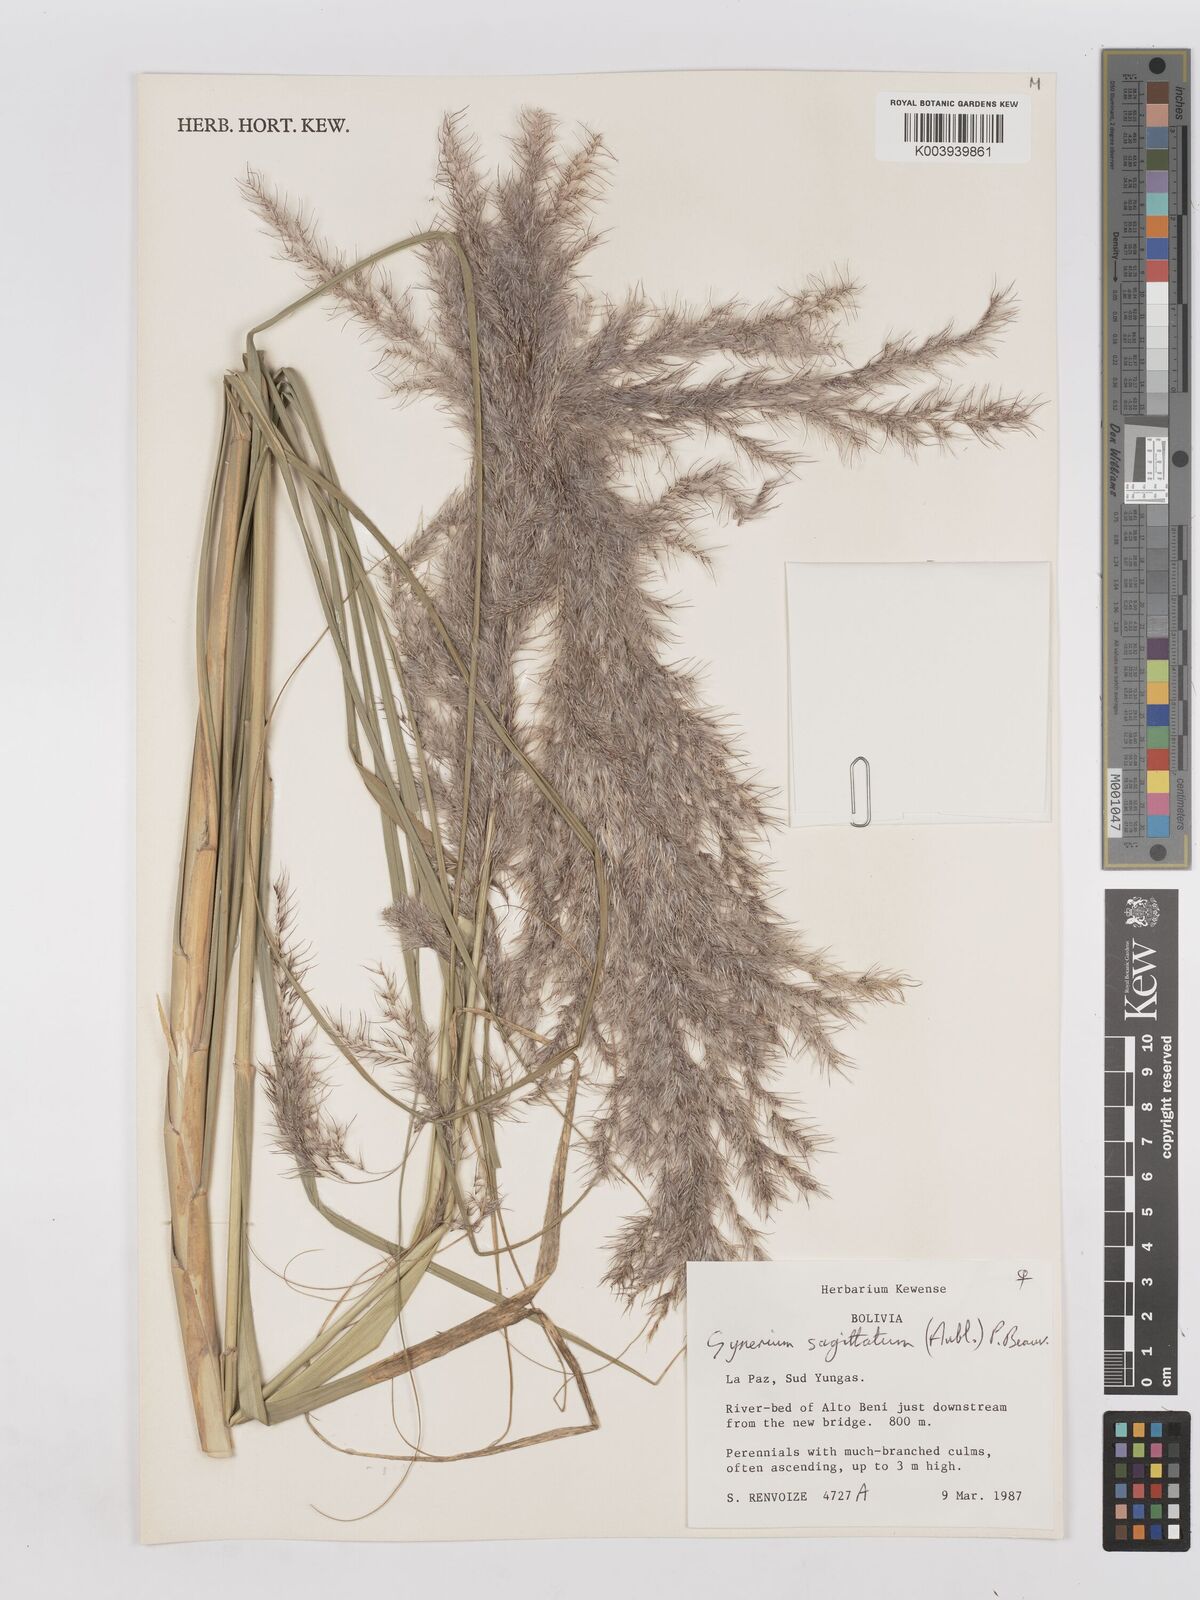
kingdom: Plantae
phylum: Tracheophyta
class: Liliopsida
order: Poales
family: Poaceae
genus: Gynerium
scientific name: Gynerium sagittatum
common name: Wild cane
